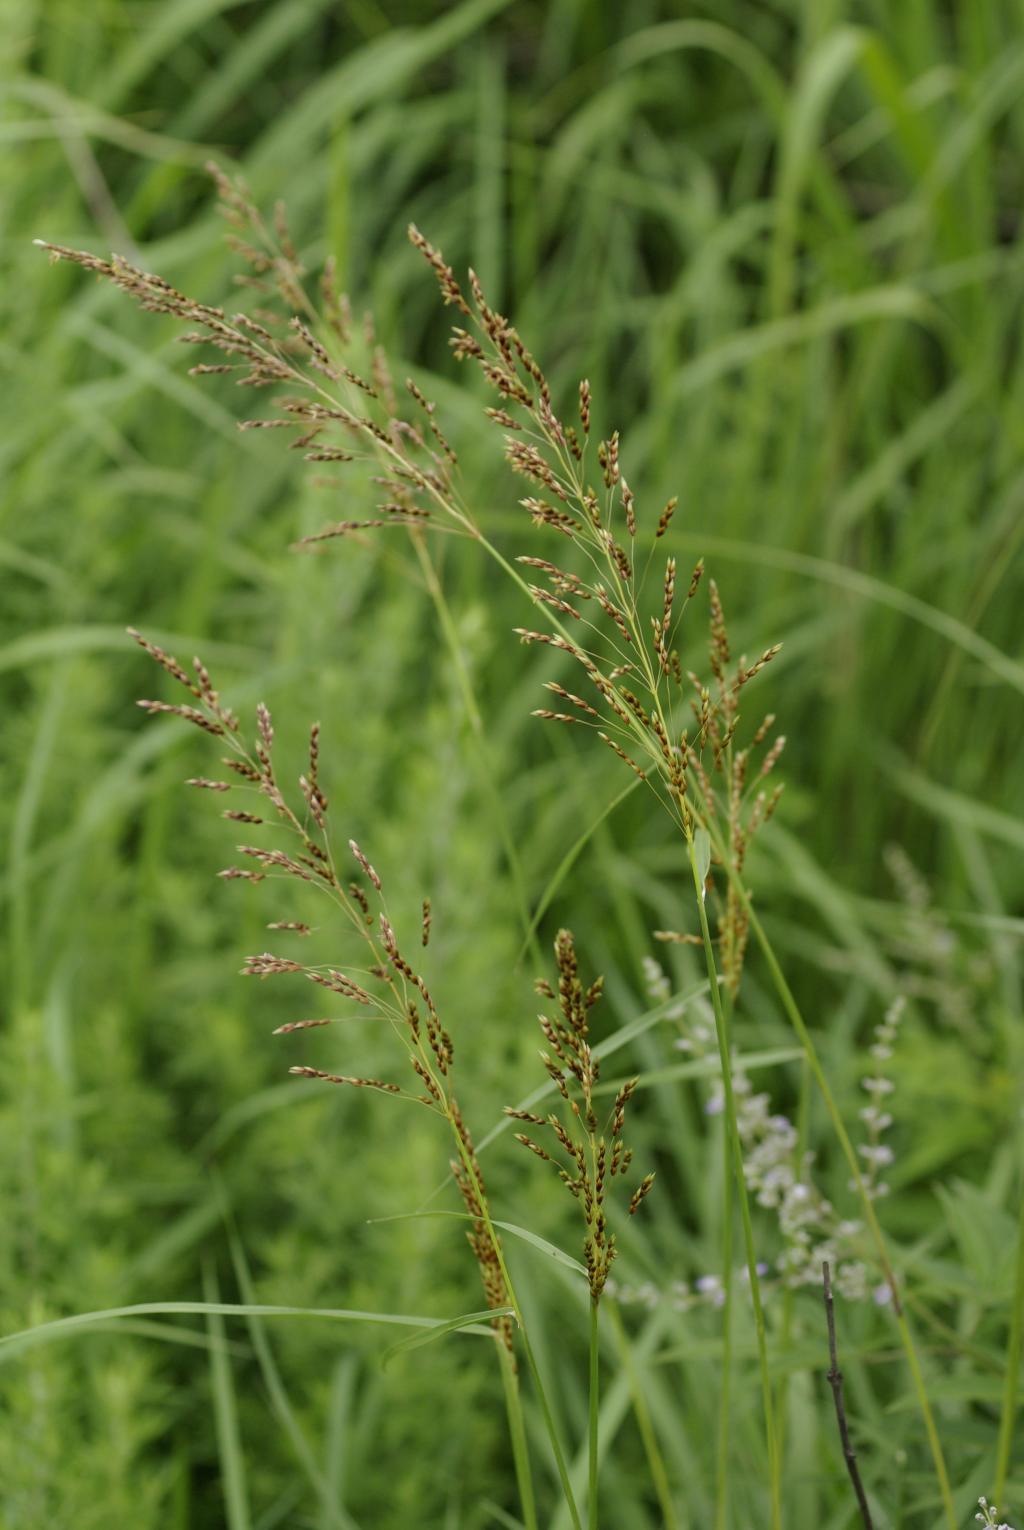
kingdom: Plantae
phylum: Tracheophyta
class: Liliopsida
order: Poales
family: Poaceae
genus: Sorghum
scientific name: Sorghum nitidum
